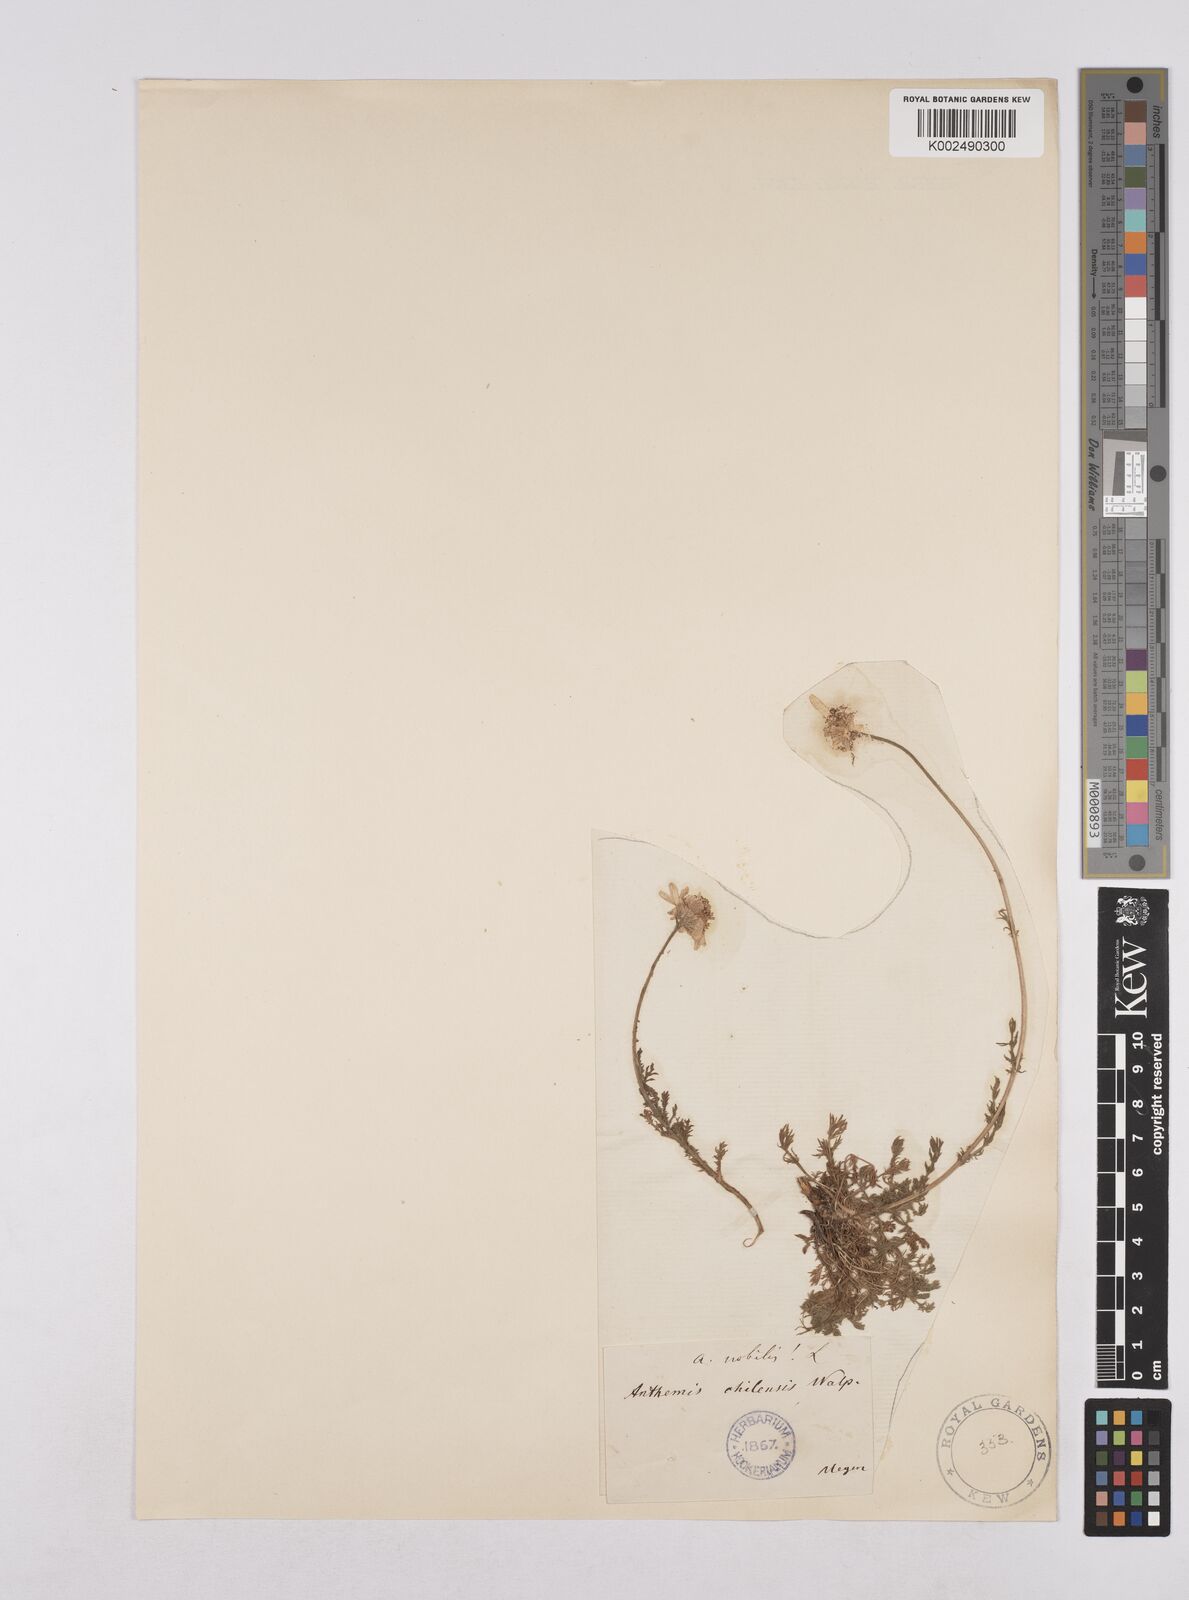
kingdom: Plantae
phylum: Tracheophyta
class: Magnoliopsida
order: Asterales
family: Asteraceae
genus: Chamaemelum
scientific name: Chamaemelum nobile
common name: Roman chamomile
